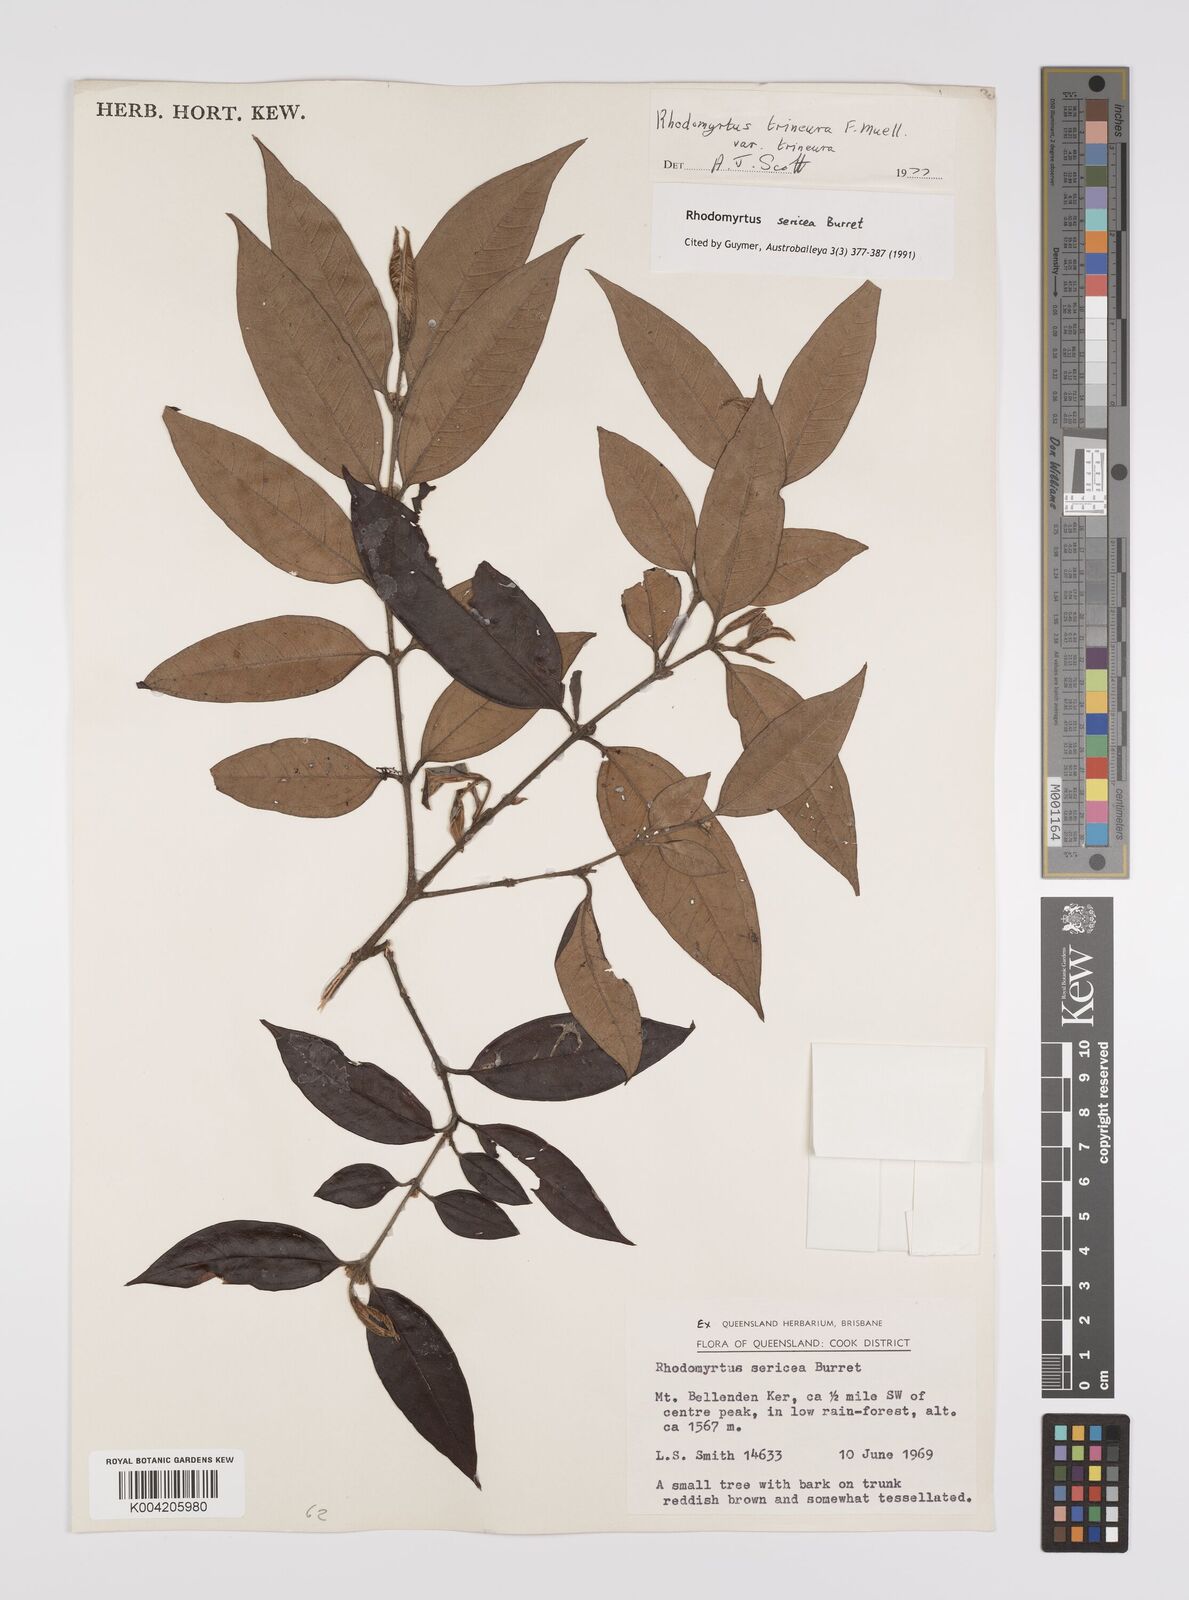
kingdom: Plantae
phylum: Tracheophyta
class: Magnoliopsida
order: Myrtales
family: Myrtaceae
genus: Rhodomyrtus
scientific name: Rhodomyrtus sericea
